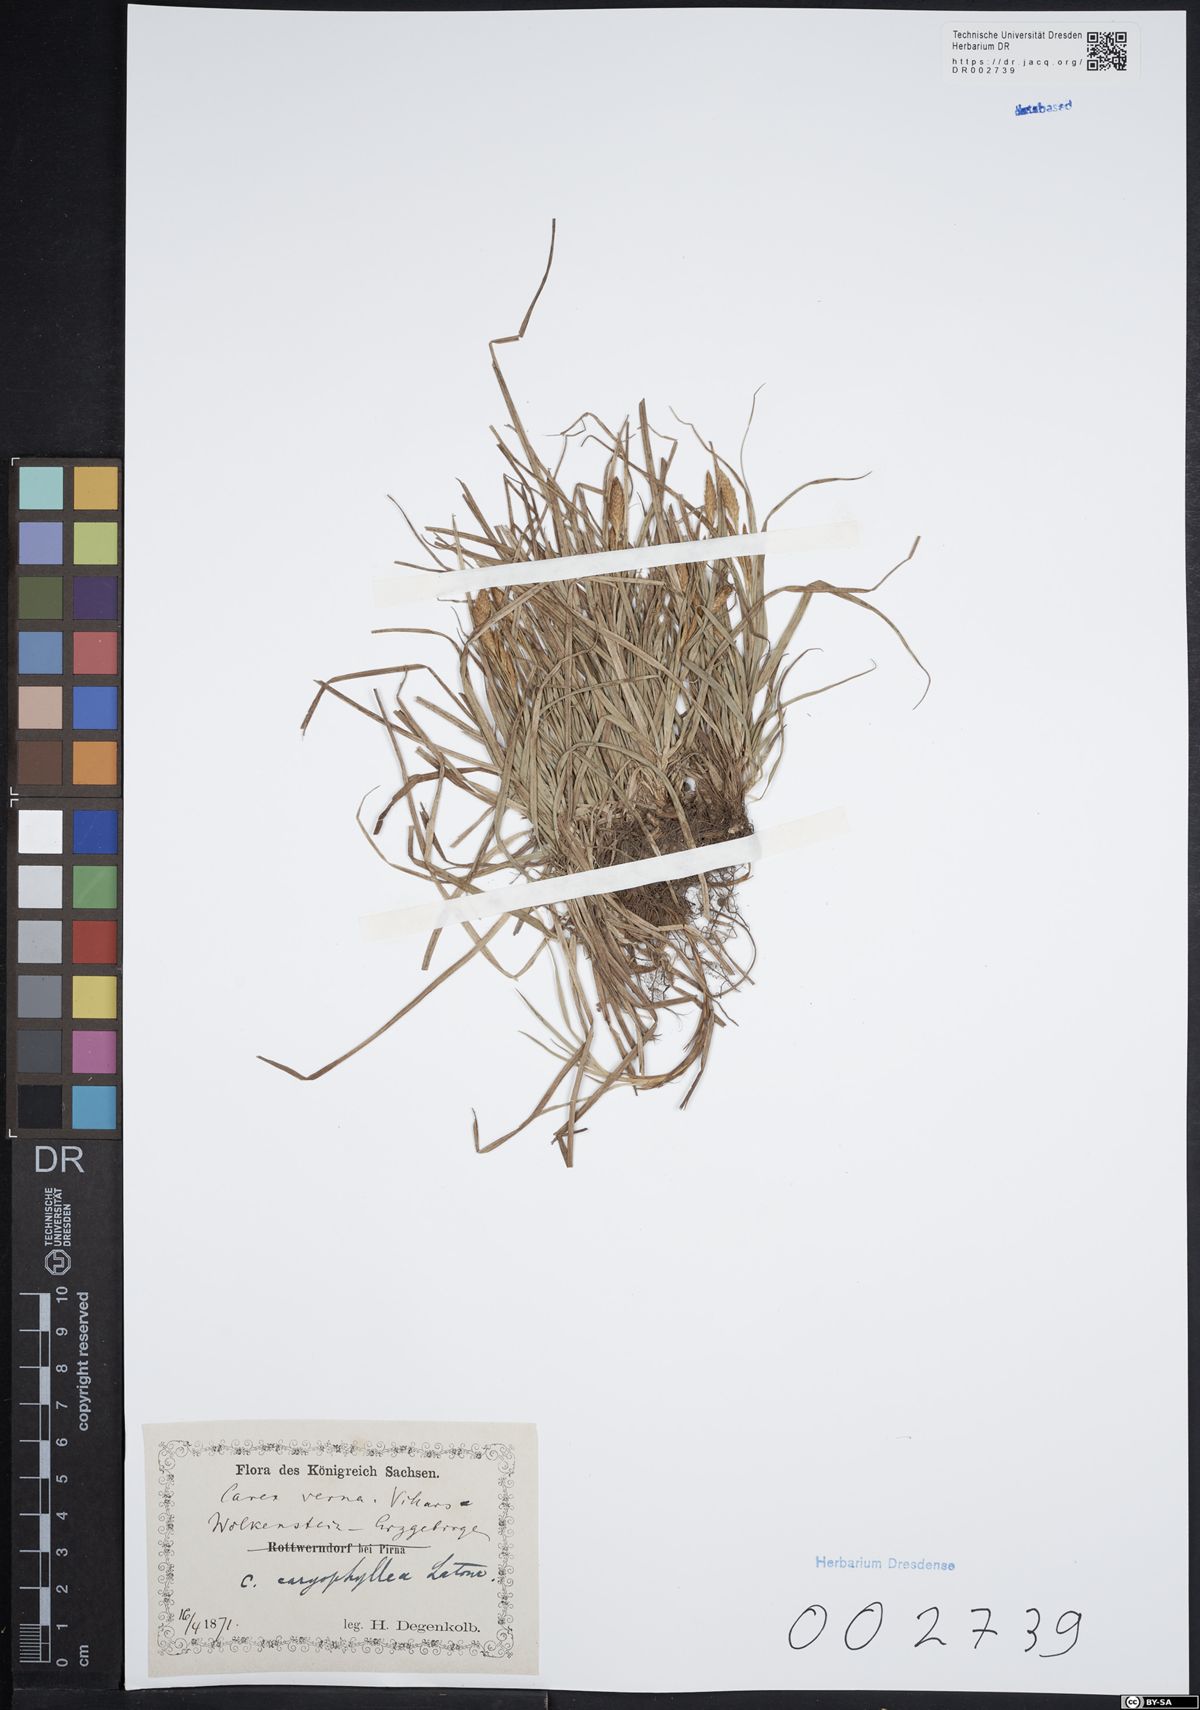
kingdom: Plantae
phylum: Tracheophyta
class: Liliopsida
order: Poales
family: Cyperaceae
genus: Carex
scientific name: Carex caryophyllea
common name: Spring sedge
